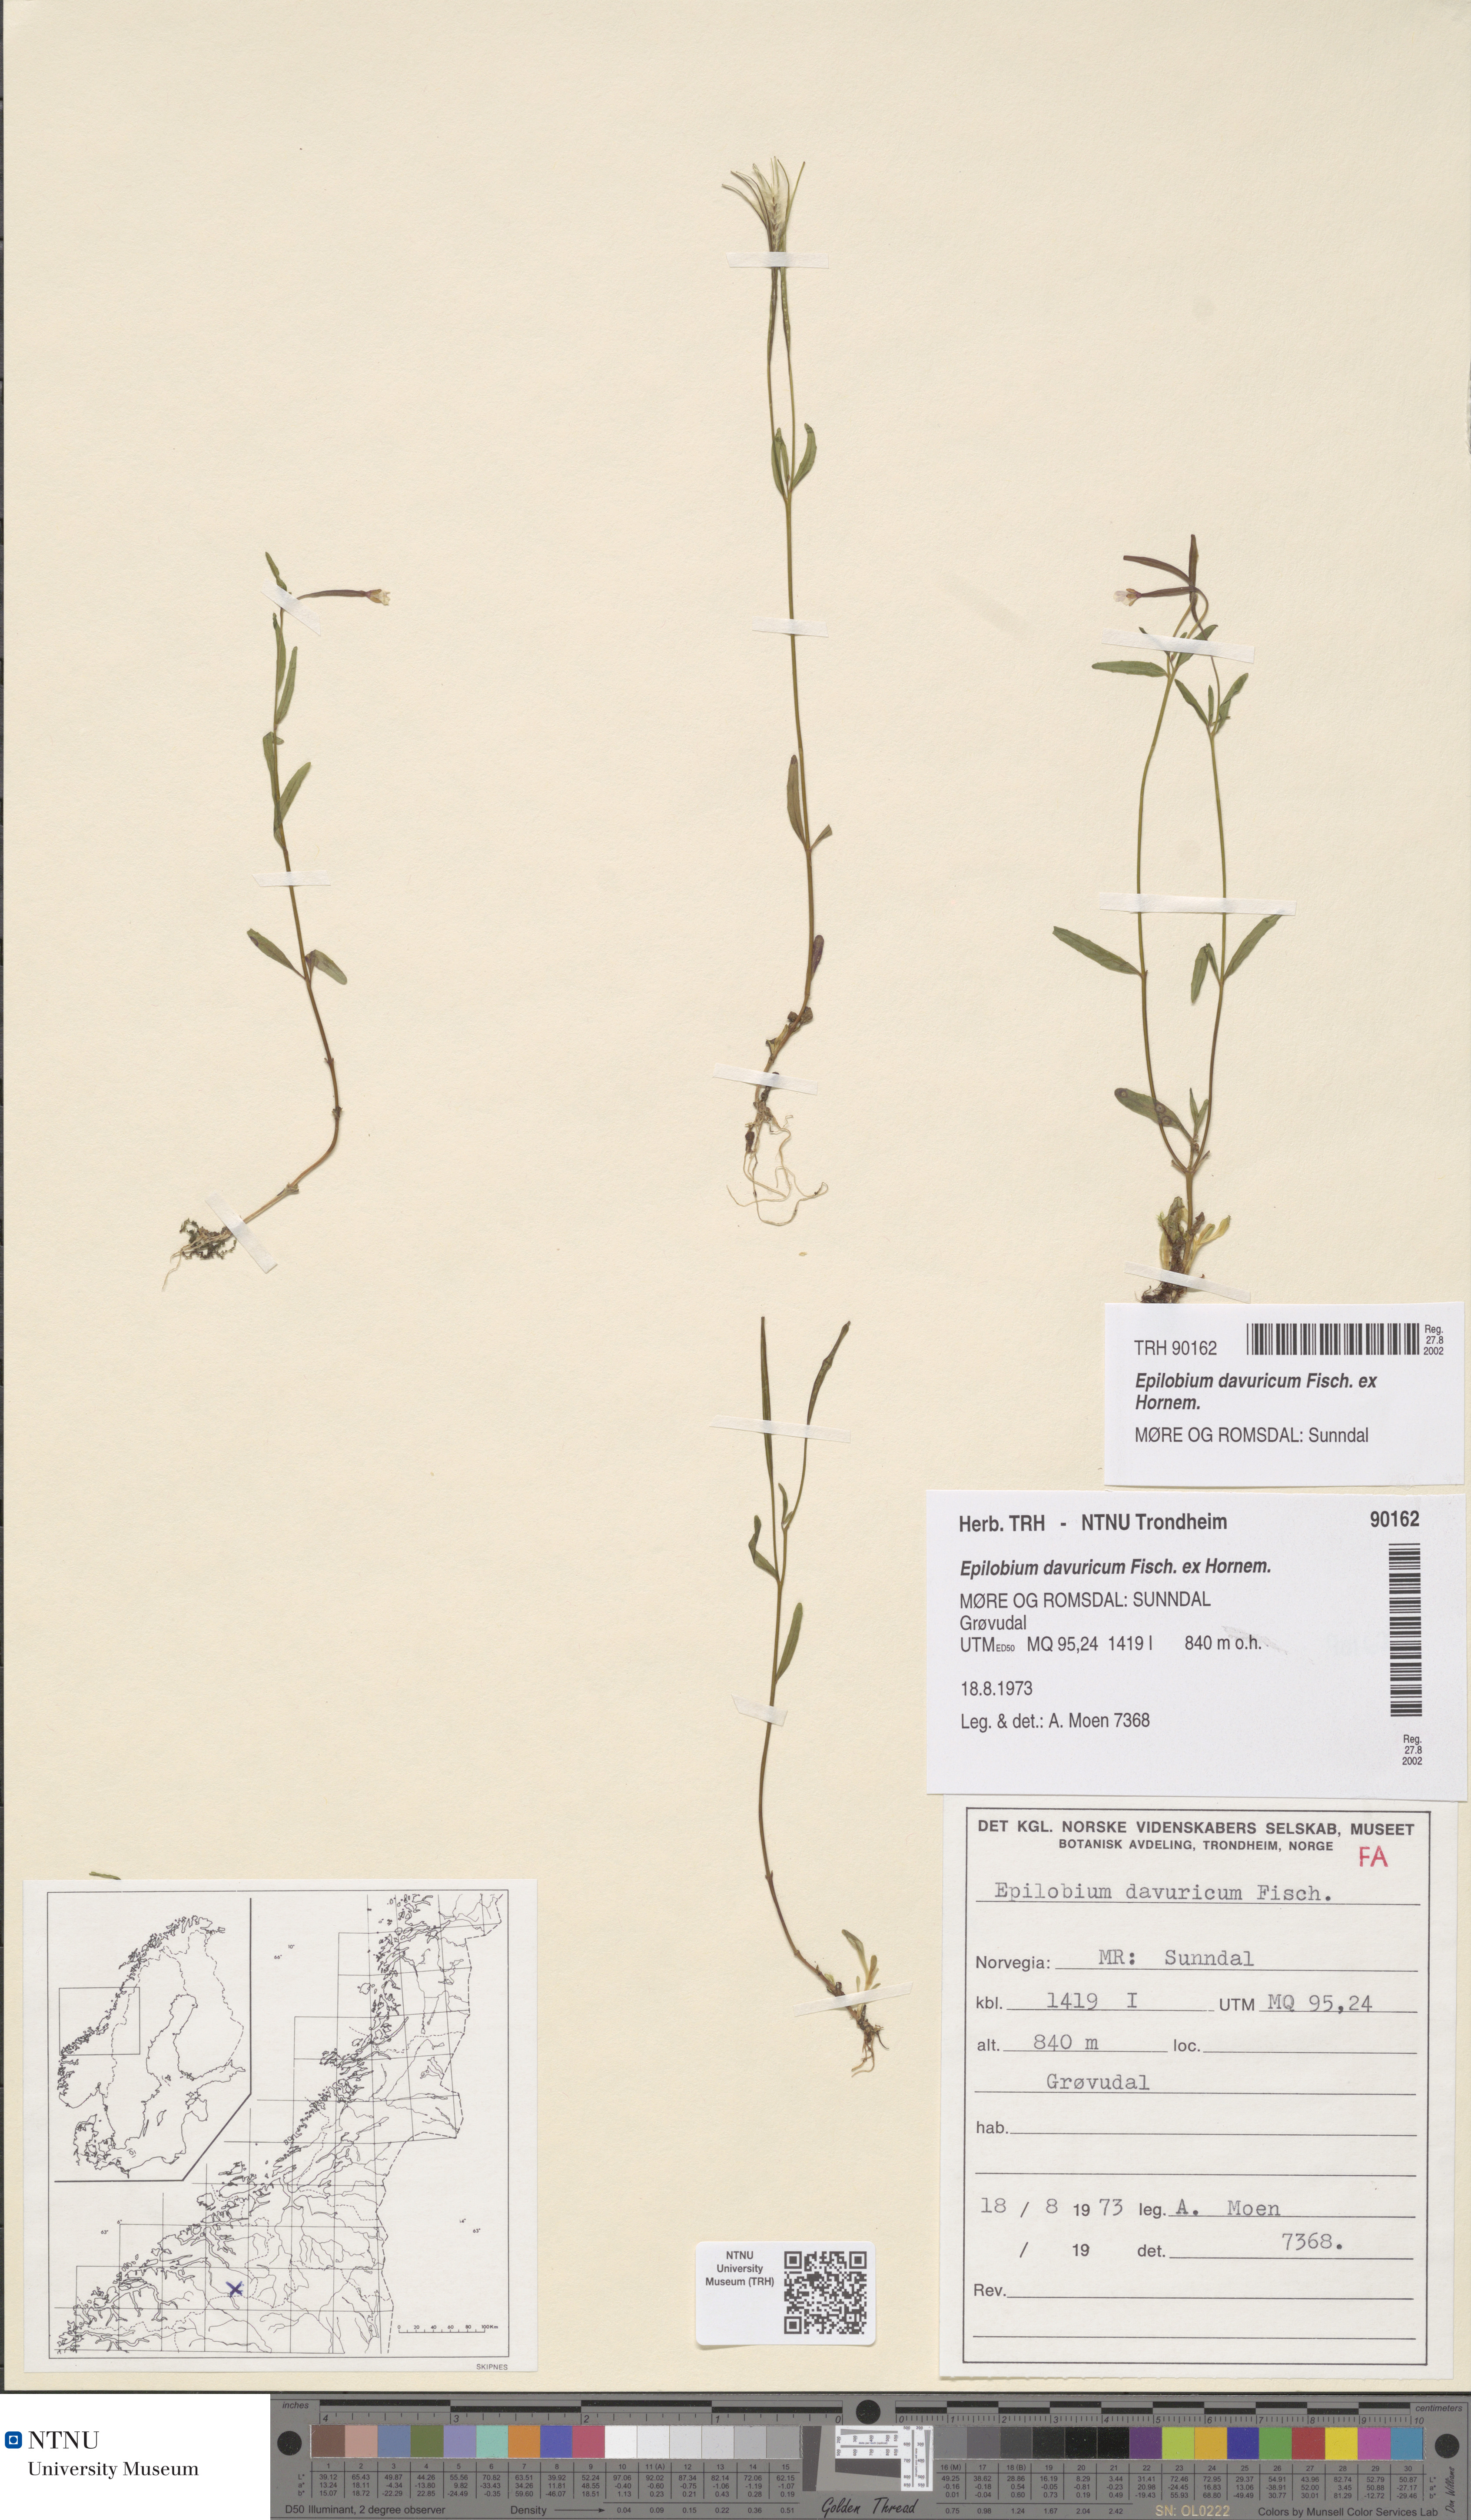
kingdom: Plantae
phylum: Tracheophyta
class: Magnoliopsida
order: Myrtales
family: Onagraceae
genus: Epilobium
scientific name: Epilobium davuricum
